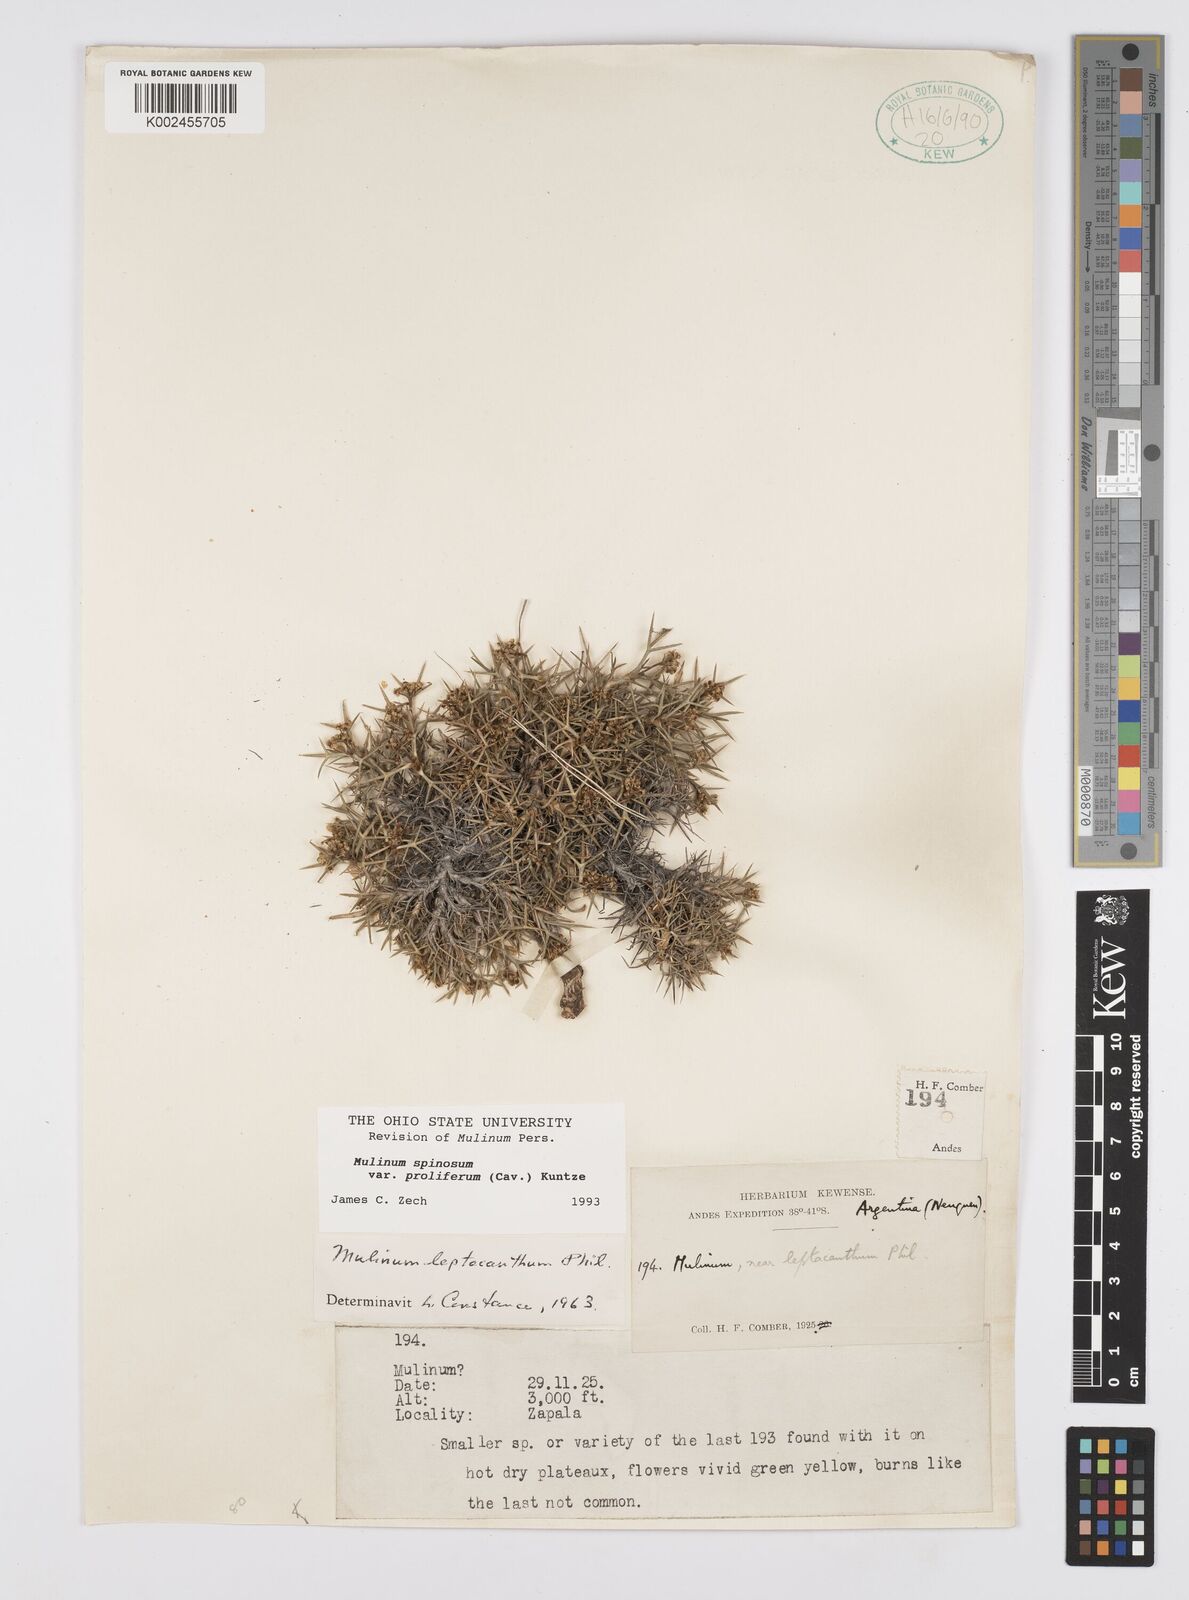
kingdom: Plantae
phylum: Tracheophyta
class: Magnoliopsida
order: Apiales
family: Apiaceae
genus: Azorella
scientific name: Azorella prolifera
